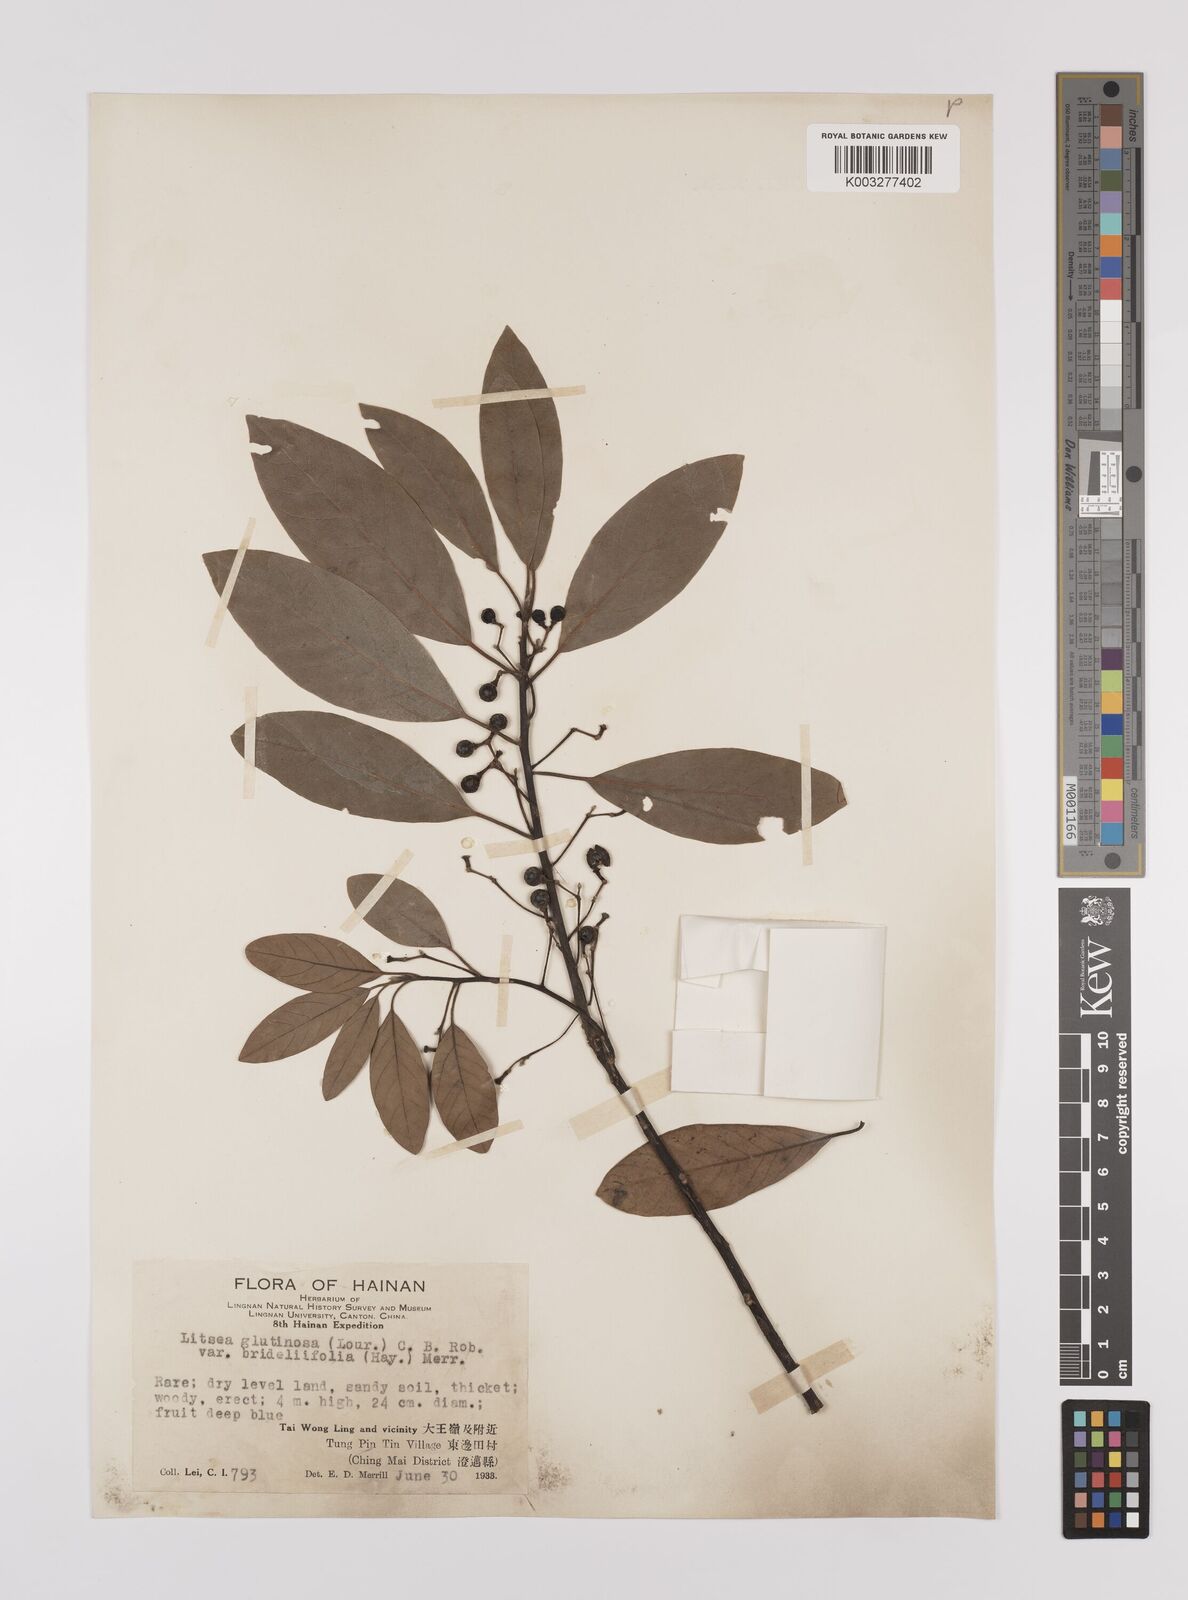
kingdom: Plantae
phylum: Tracheophyta
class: Magnoliopsida
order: Laurales
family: Lauraceae
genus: Litsea
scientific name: Litsea glutinosa
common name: Indian-laurel
